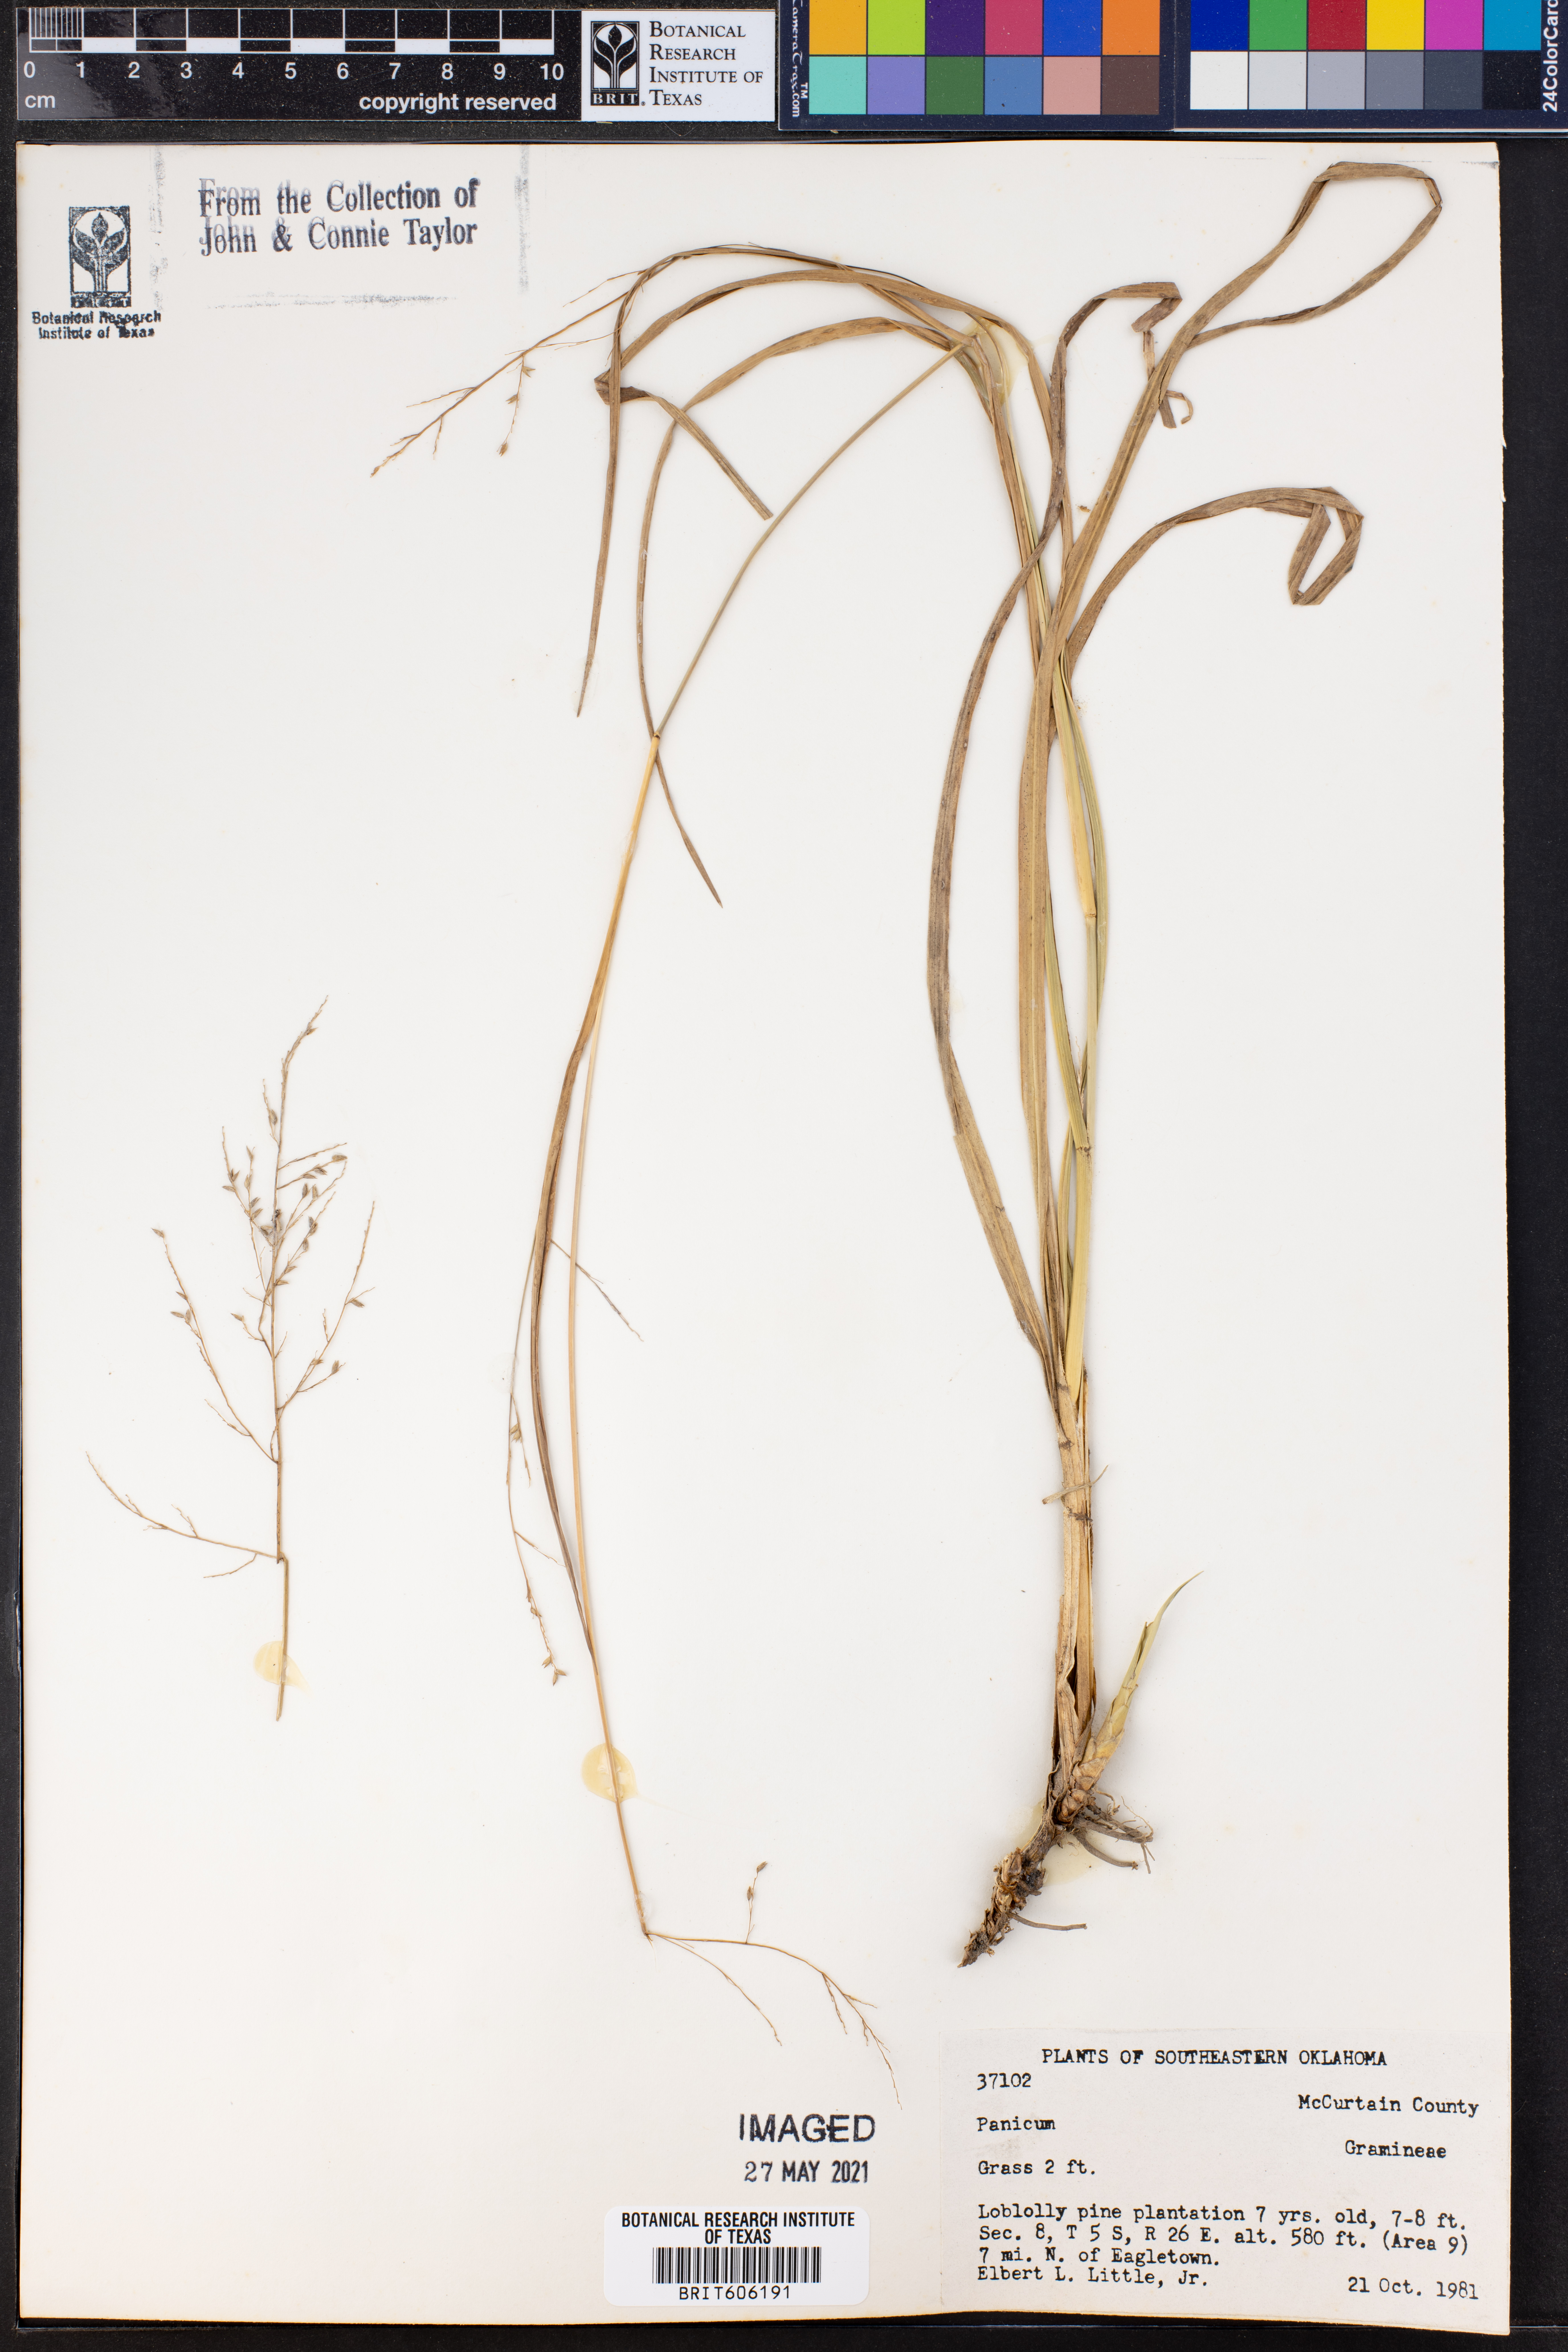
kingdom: Plantae
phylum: Tracheophyta
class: Liliopsida
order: Poales
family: Poaceae
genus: Panicum
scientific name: Panicum
